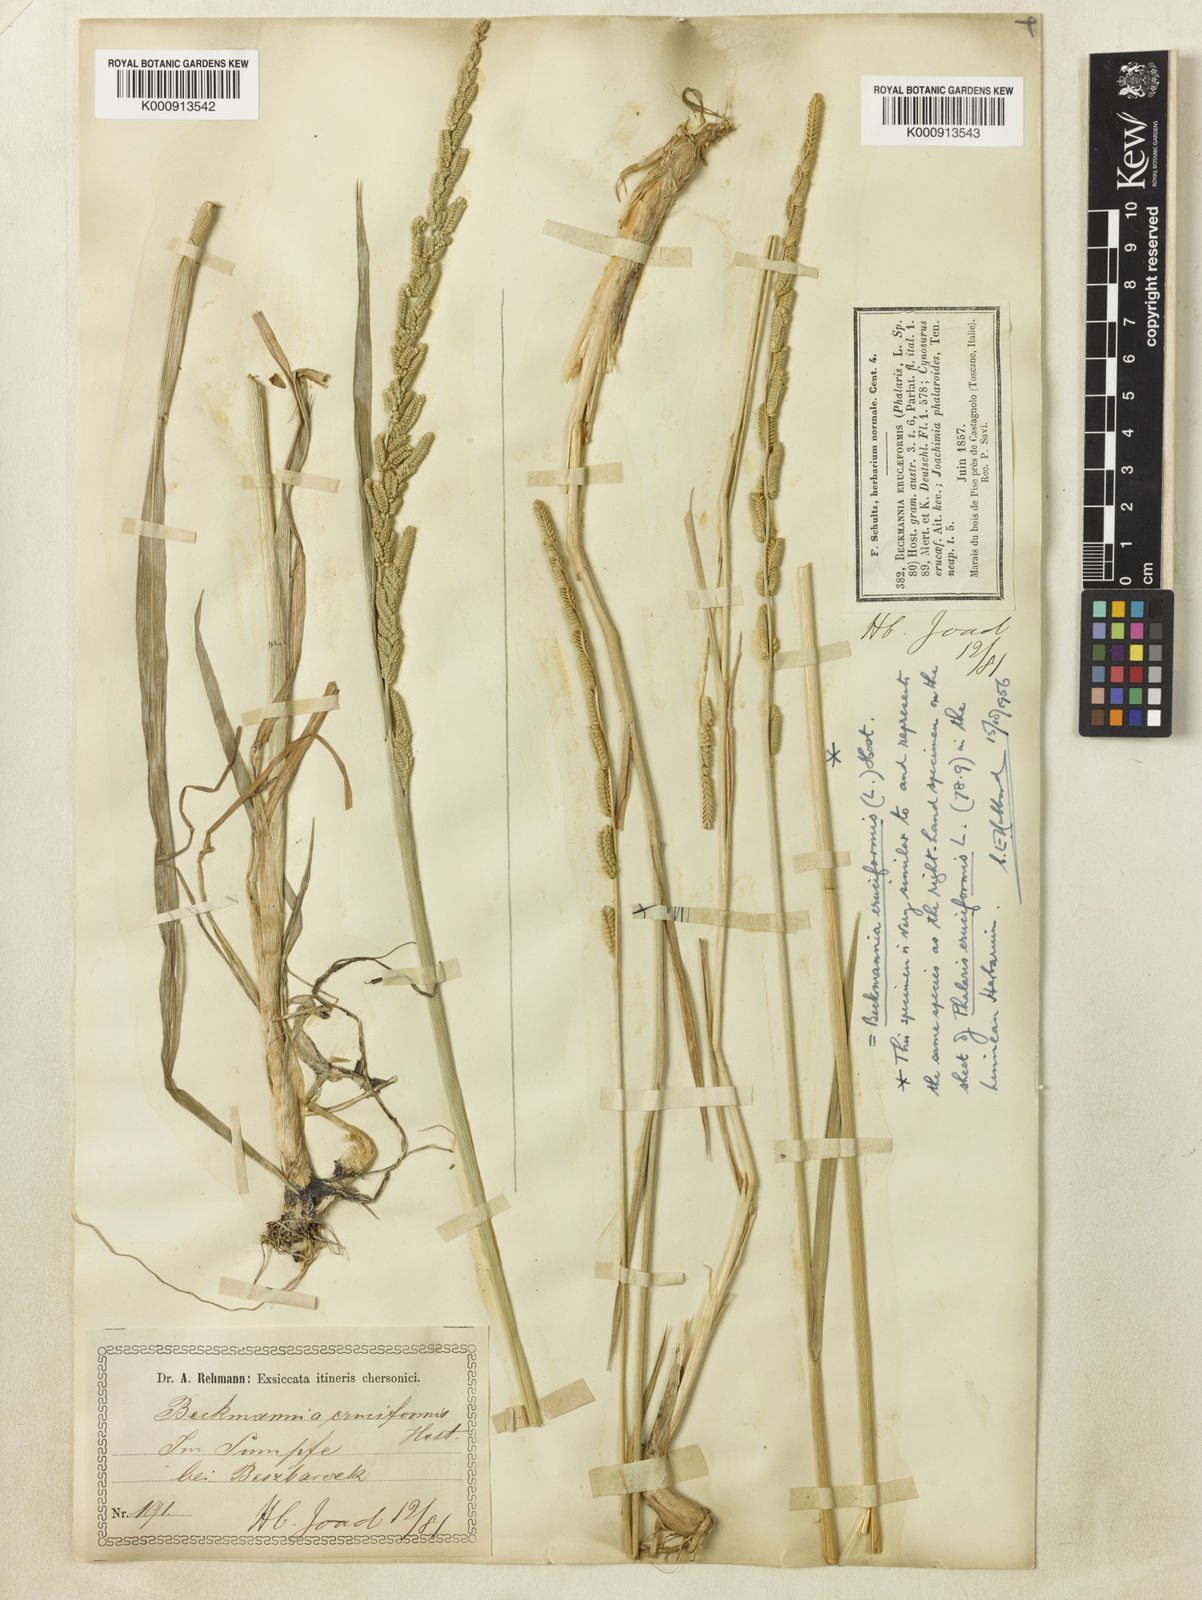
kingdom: Plantae
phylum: Tracheophyta
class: Liliopsida
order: Poales
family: Poaceae
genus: Beckmannia
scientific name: Beckmannia eruciformis
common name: European slough-grass
